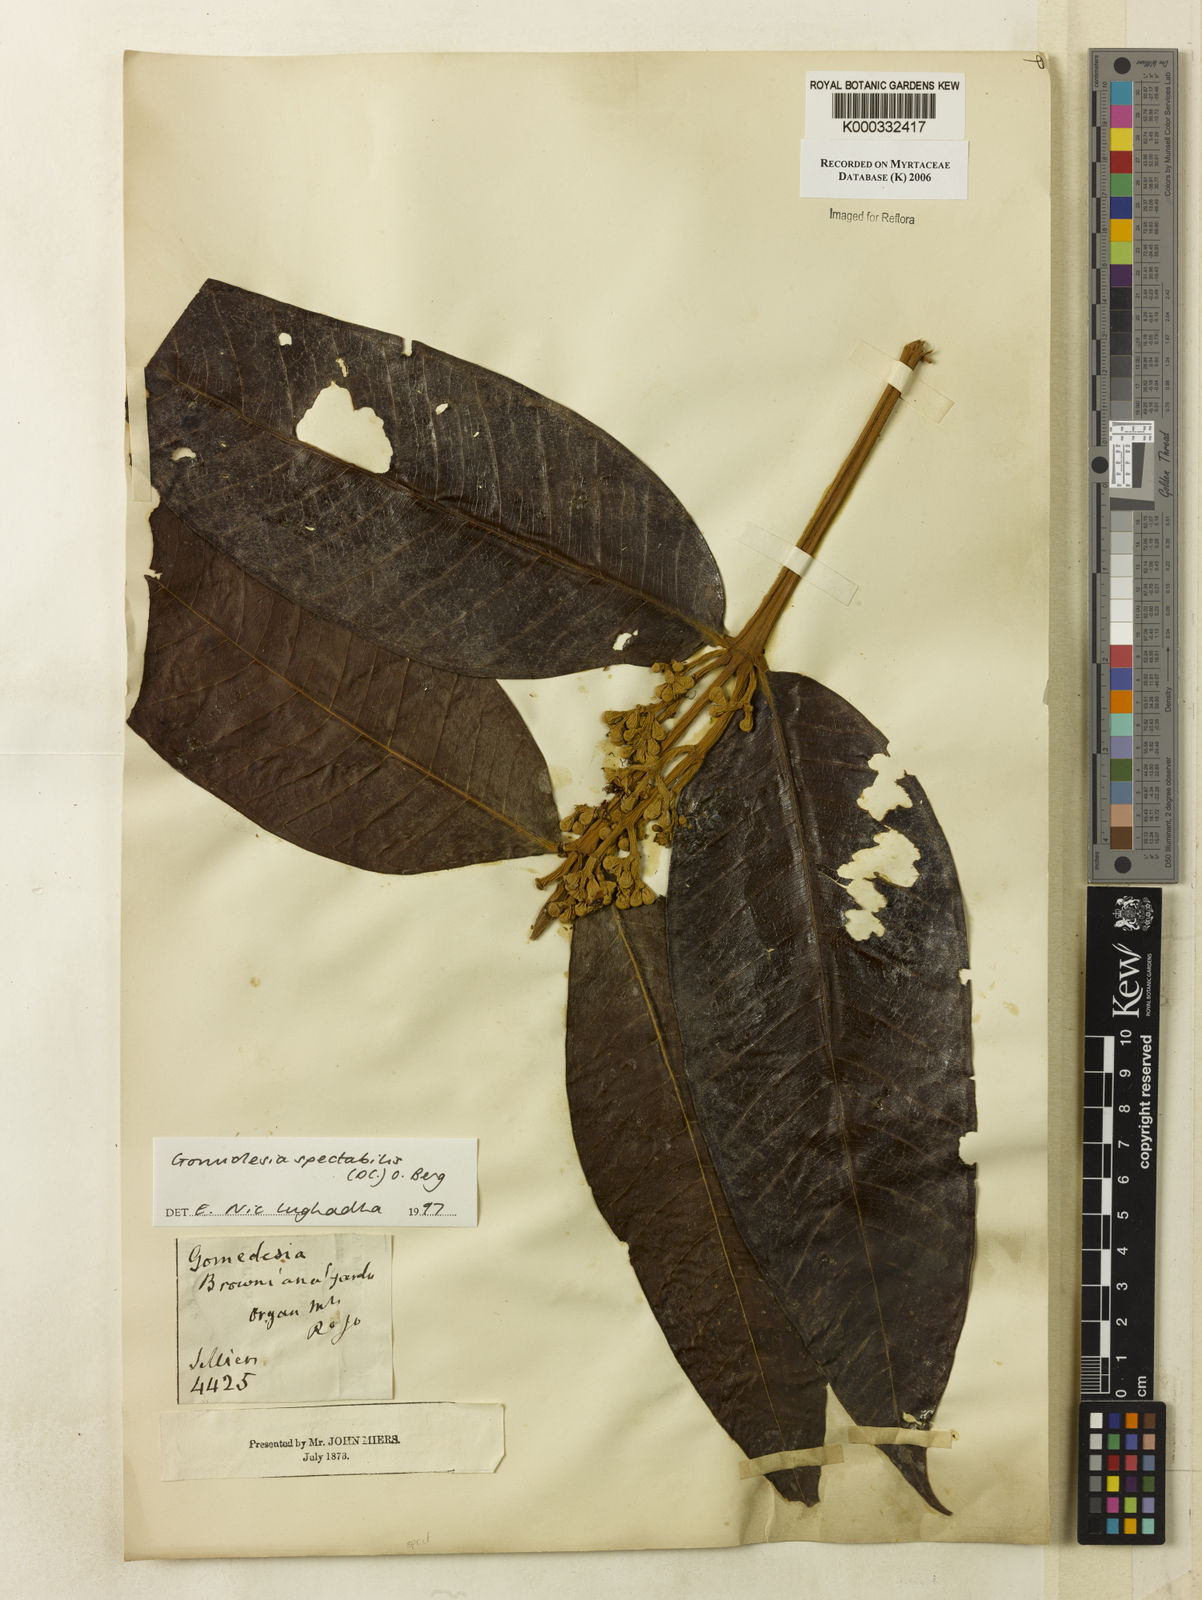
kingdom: Plantae
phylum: Tracheophyta
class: Magnoliopsida
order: Myrtales
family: Myrtaceae
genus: Myrcia
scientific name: Myrcia spectabilis
